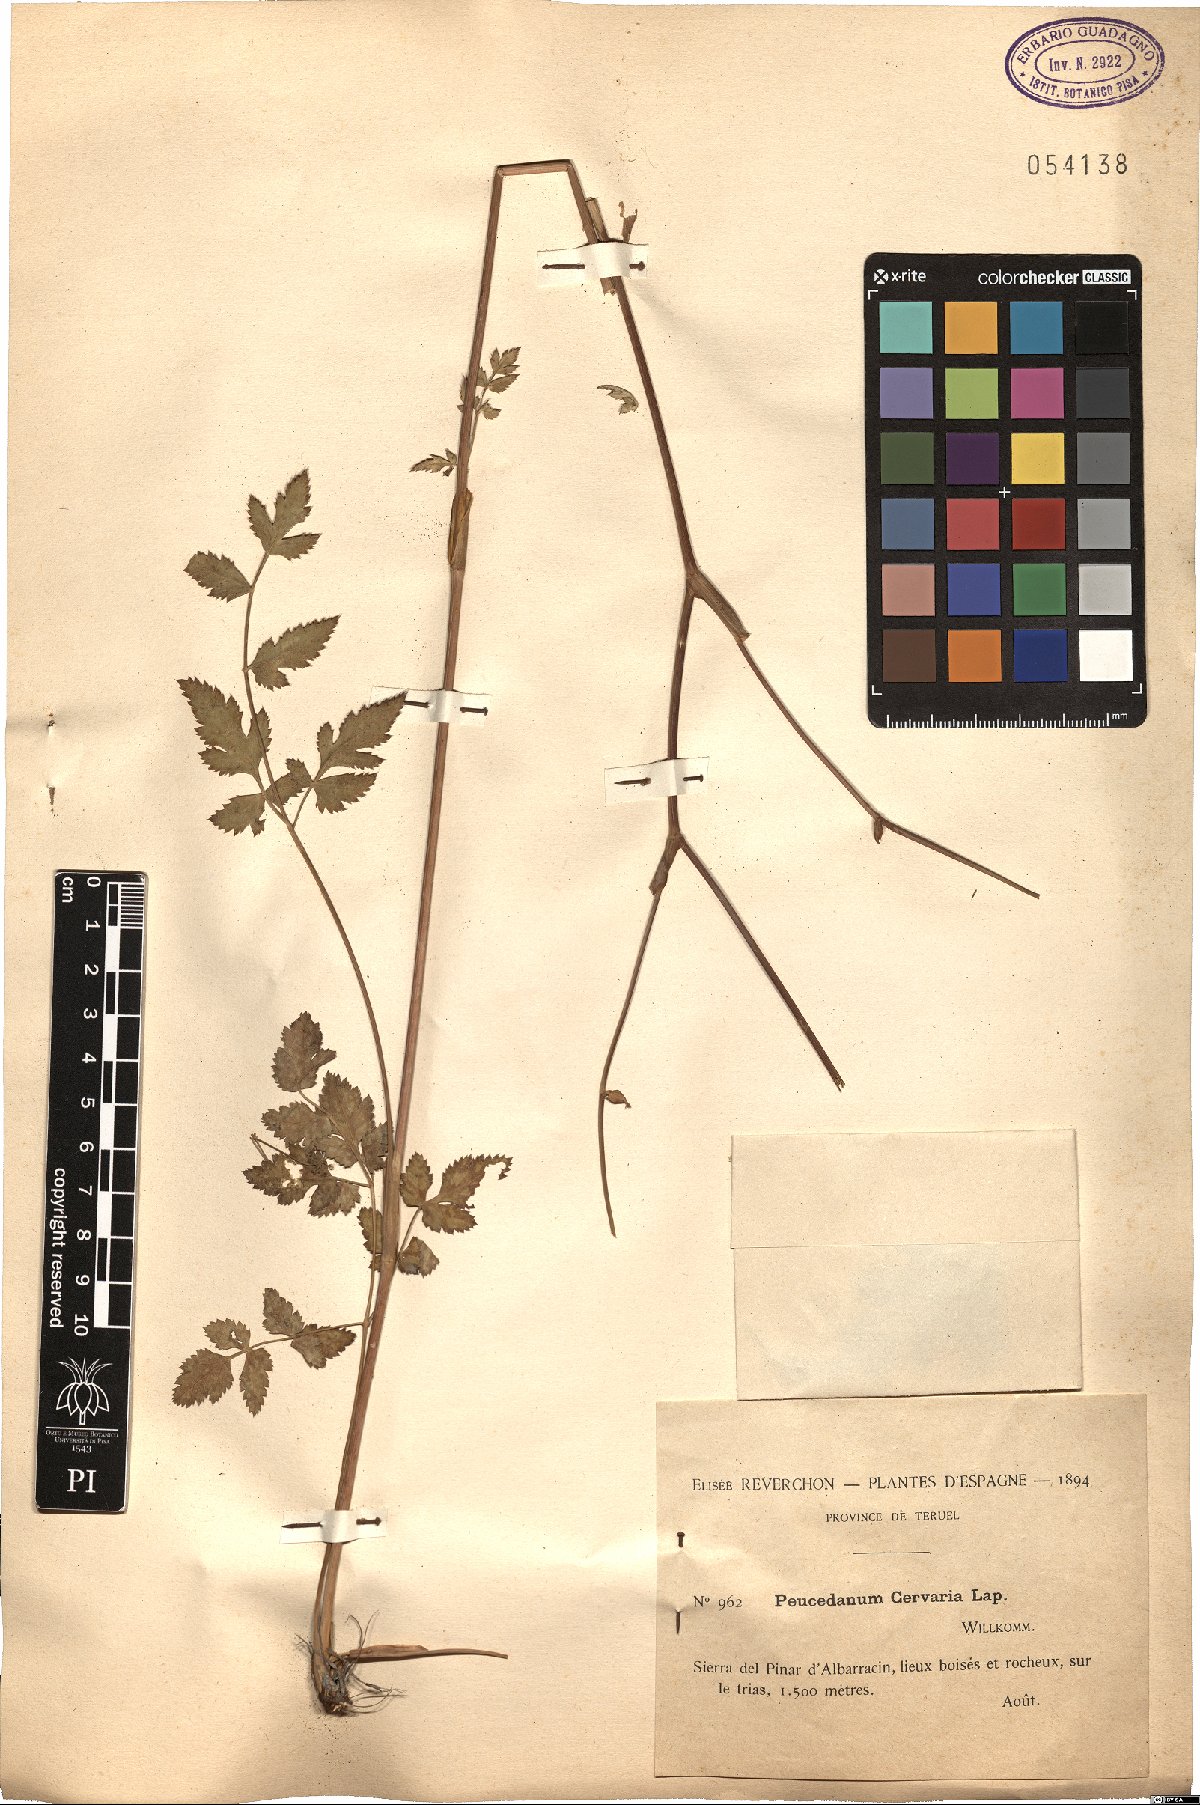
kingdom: Plantae
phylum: Tracheophyta
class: Magnoliopsida
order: Apiales
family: Apiaceae
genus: Cervaria
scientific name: Cervaria rivini
